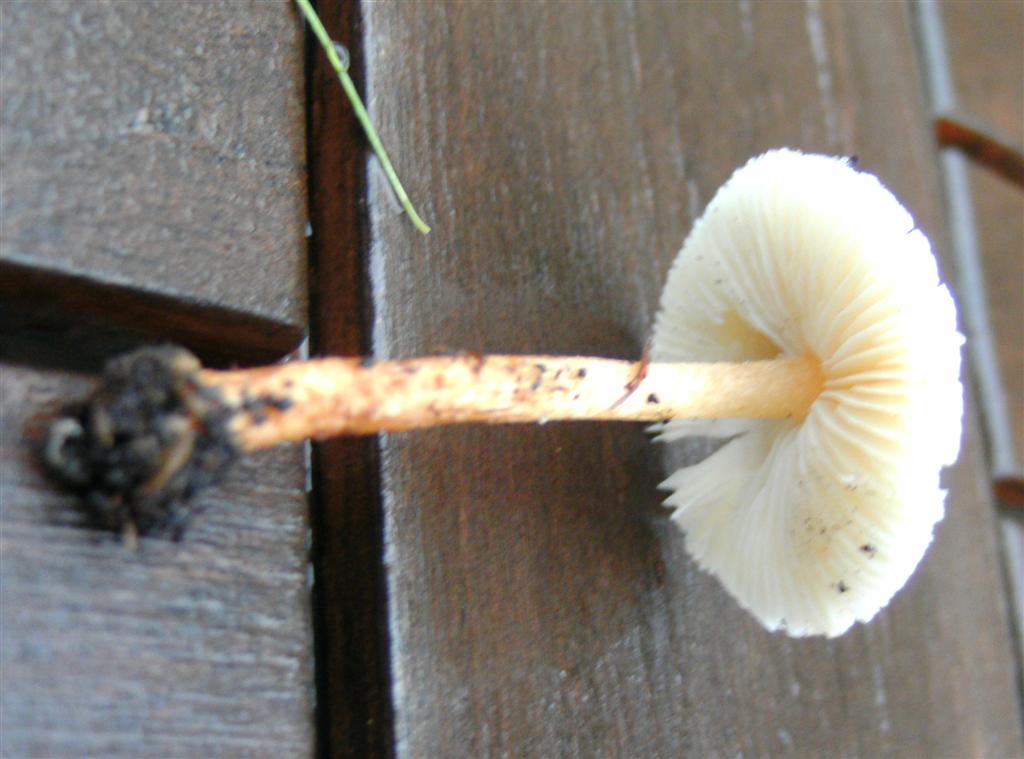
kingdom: Fungi
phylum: Basidiomycota
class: Agaricomycetes
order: Agaricales
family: Agaricaceae
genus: Lepiota
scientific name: Lepiota castanea
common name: kastaniebrun parasolhat
